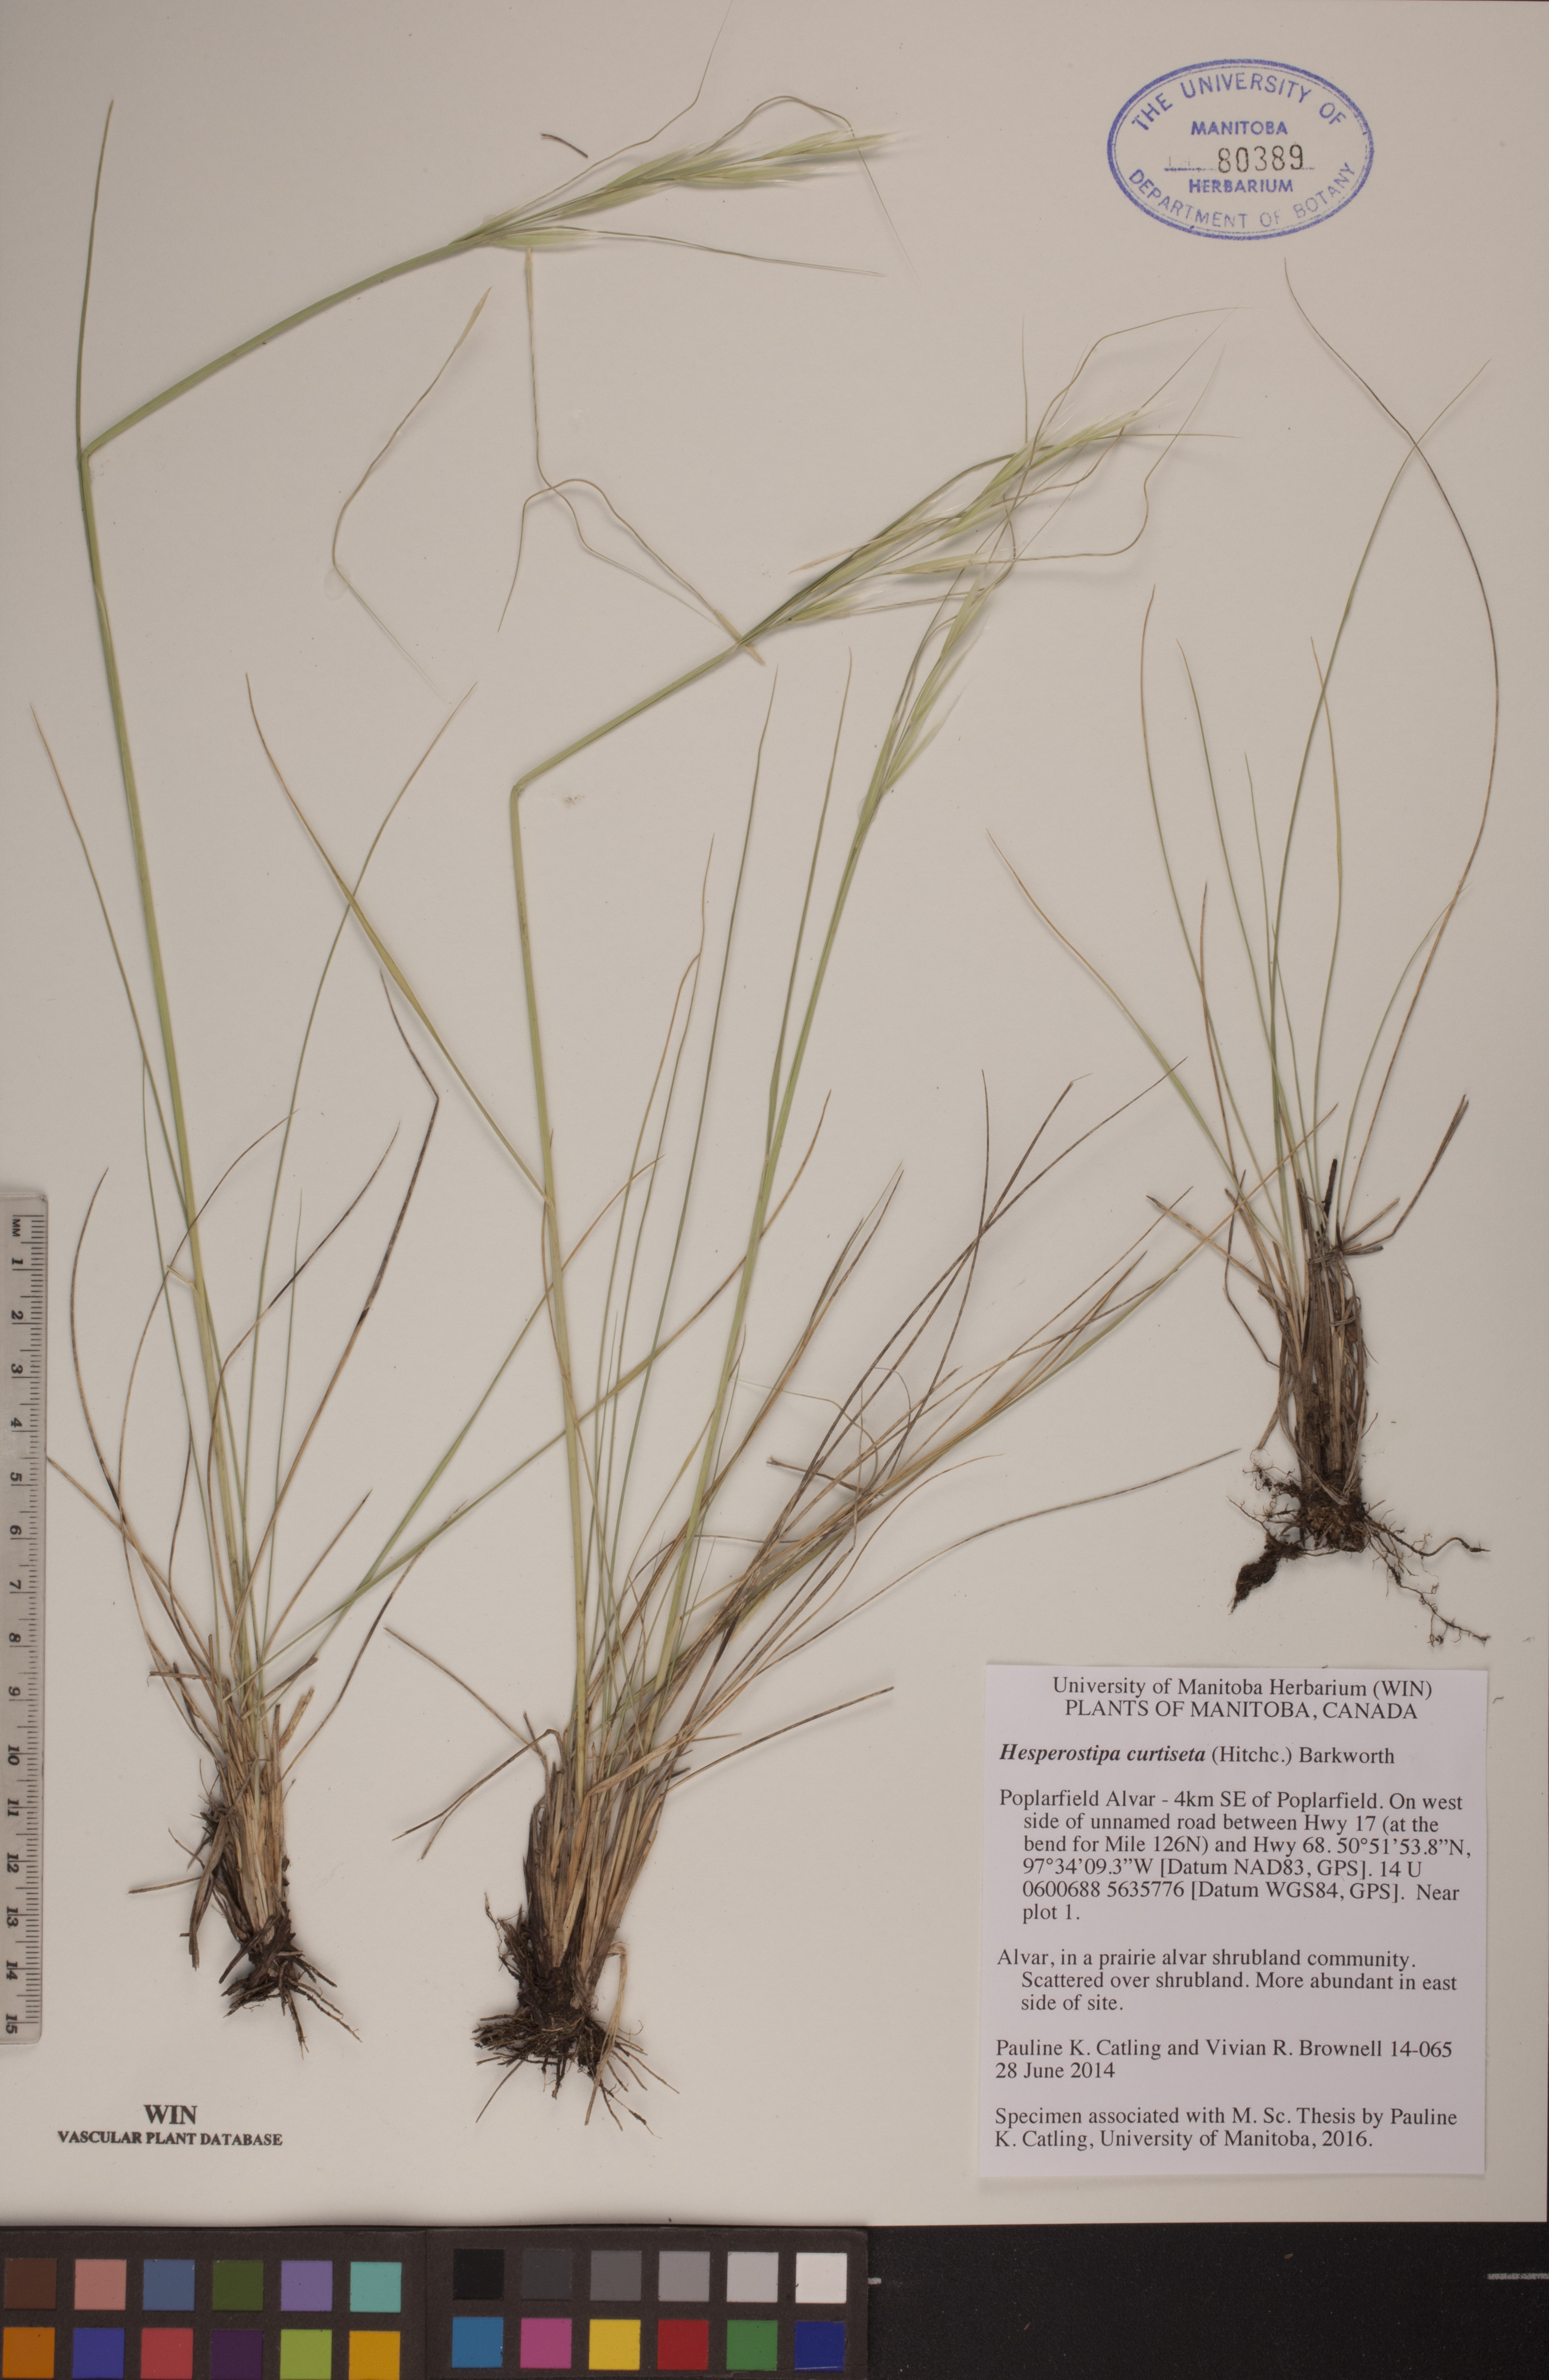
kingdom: Plantae
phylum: Tracheophyta
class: Liliopsida
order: Poales
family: Poaceae
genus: Hesperostipa
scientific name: Hesperostipa curtiseta
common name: Canada needle-and-thread grass
